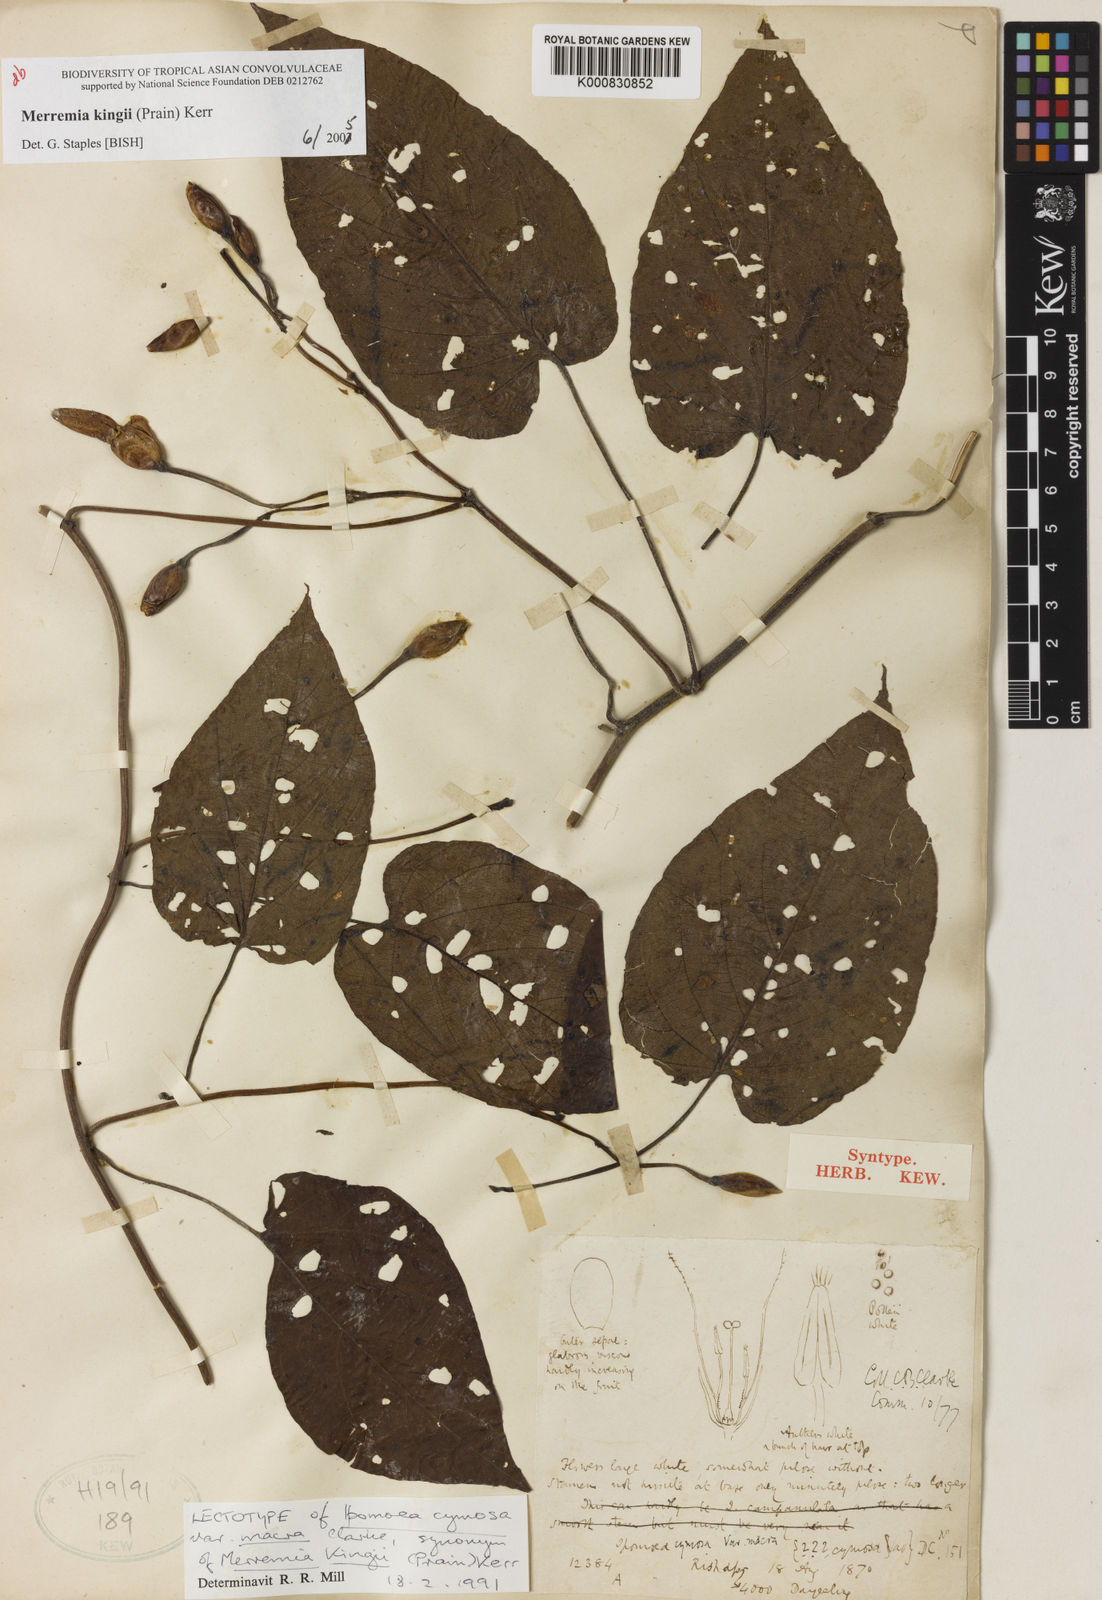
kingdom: Plantae
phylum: Tracheophyta
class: Magnoliopsida
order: Solanales
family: Convolvulaceae
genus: Camonea
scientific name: Camonea
